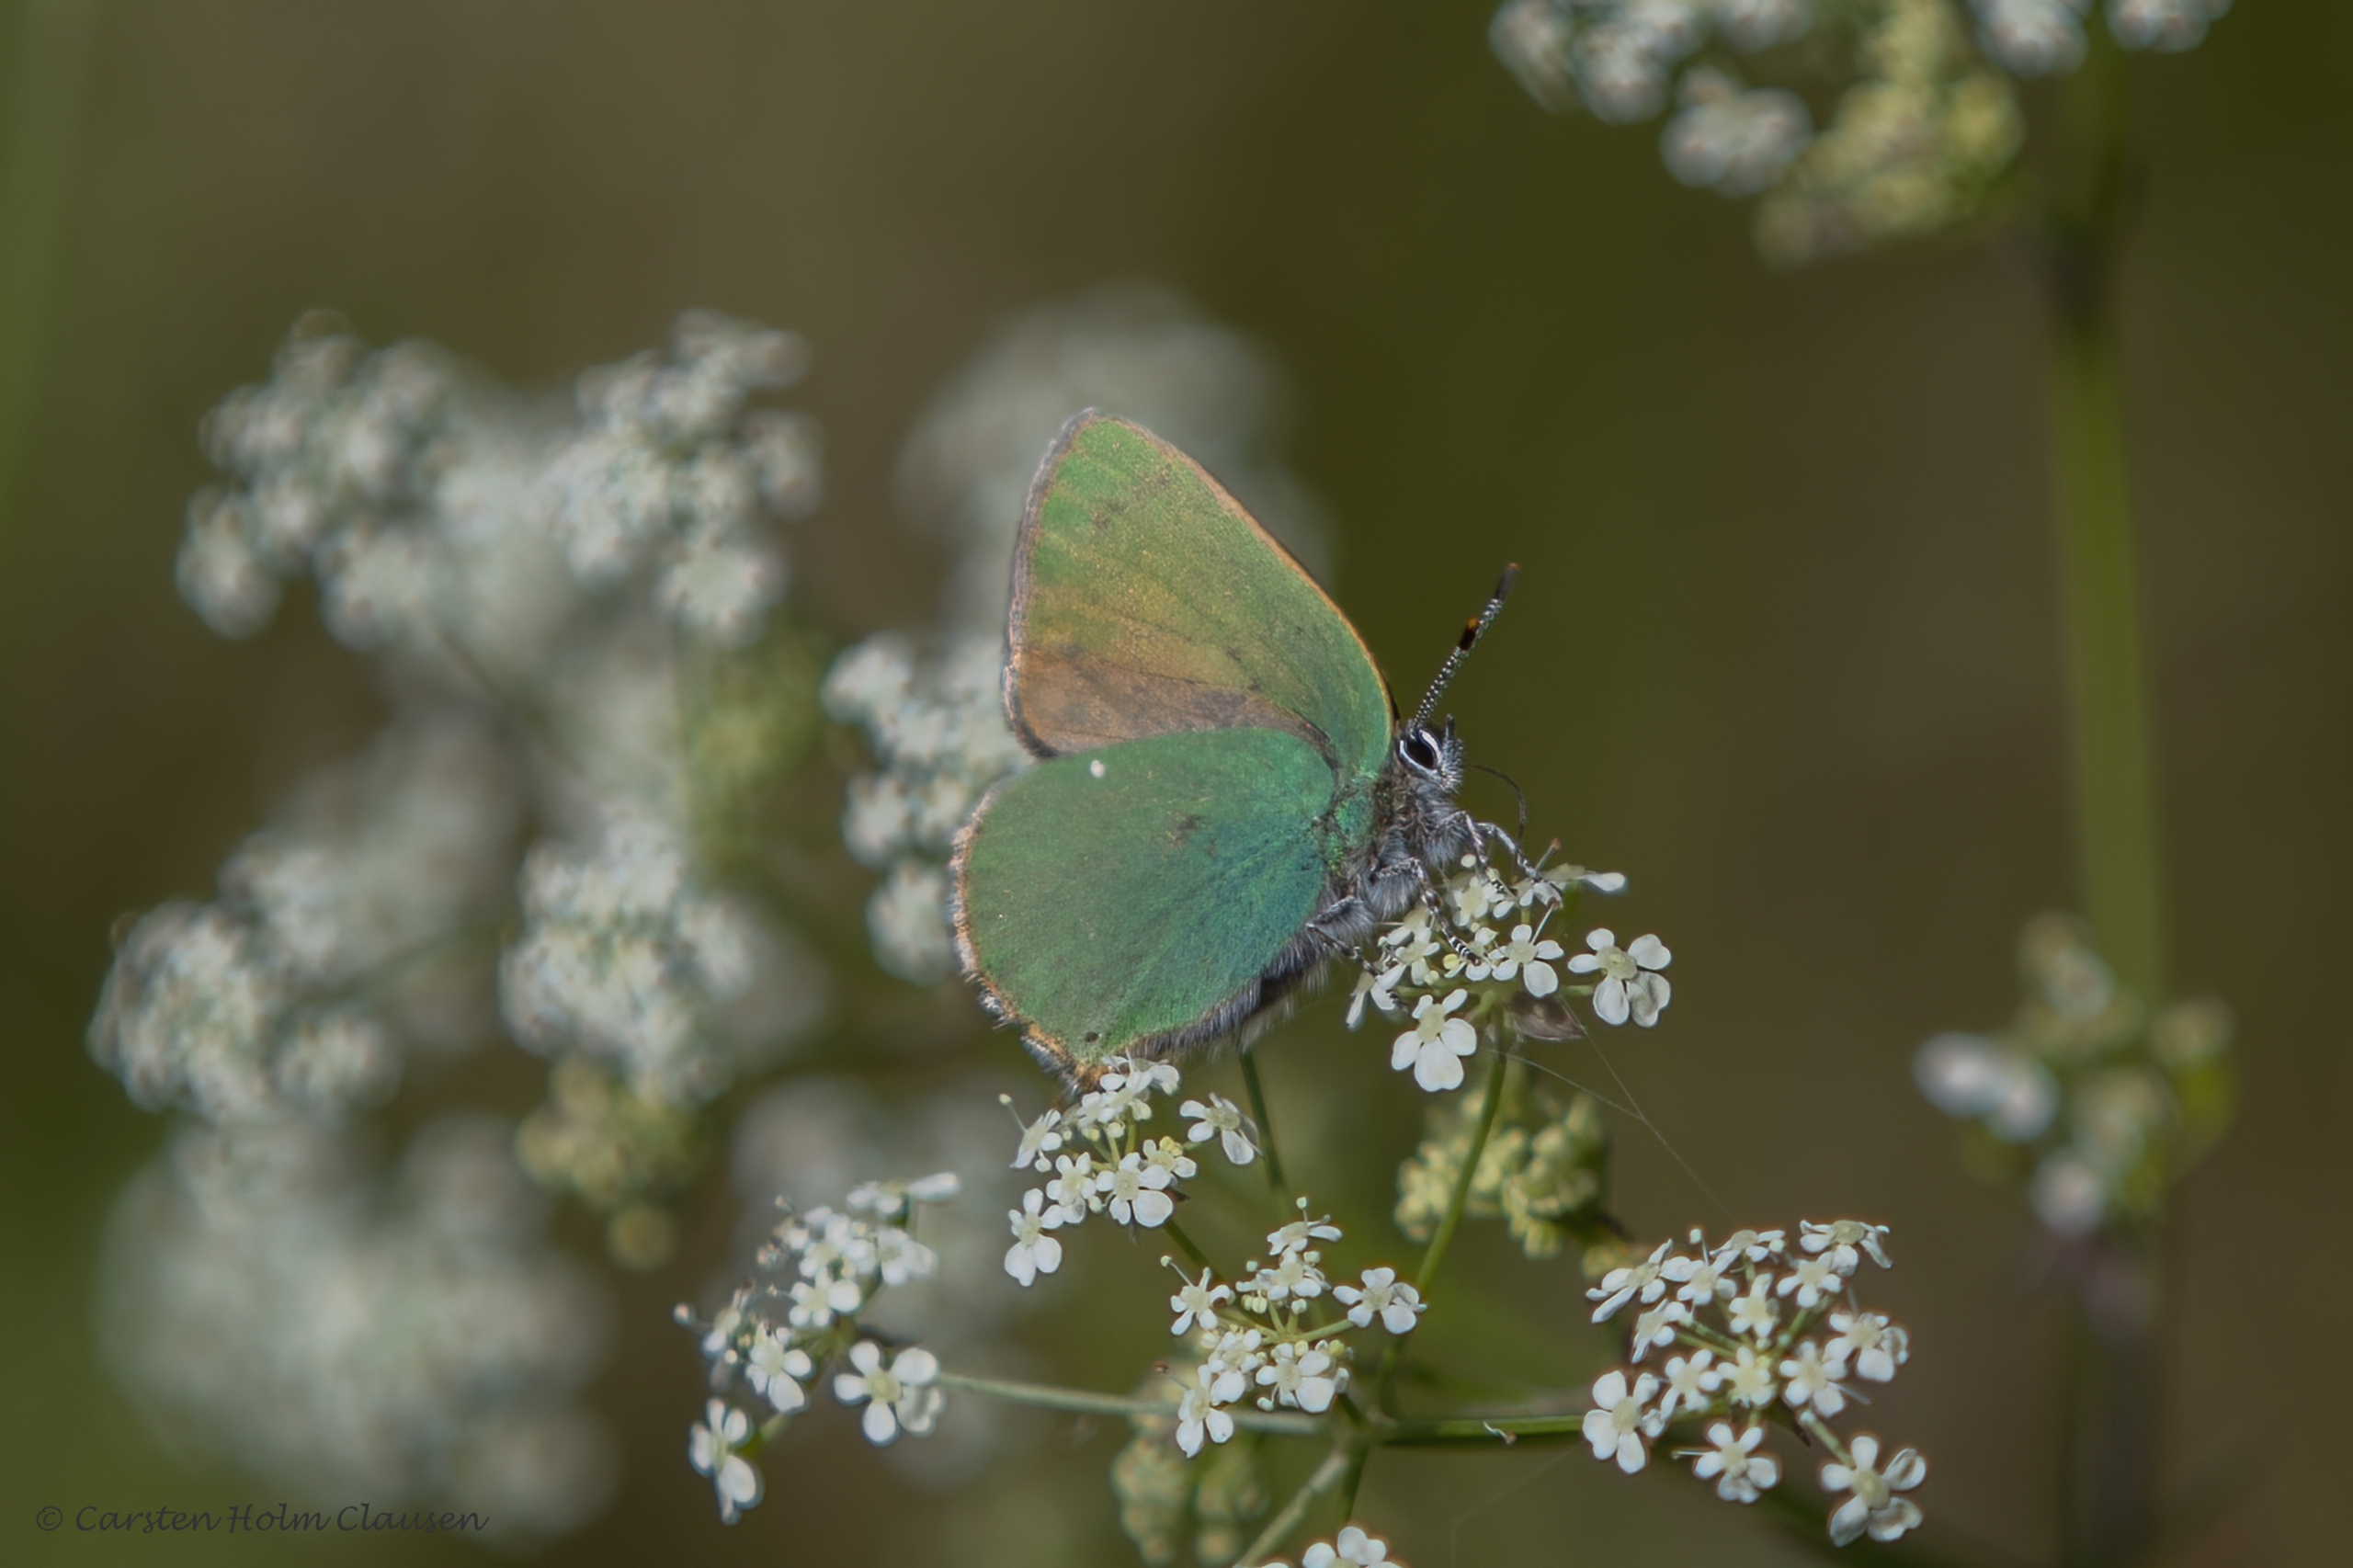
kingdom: Animalia
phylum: Arthropoda
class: Insecta
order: Lepidoptera
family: Lycaenidae
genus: Callophrys
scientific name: Callophrys rubi
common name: Grøn busksommerfugl
